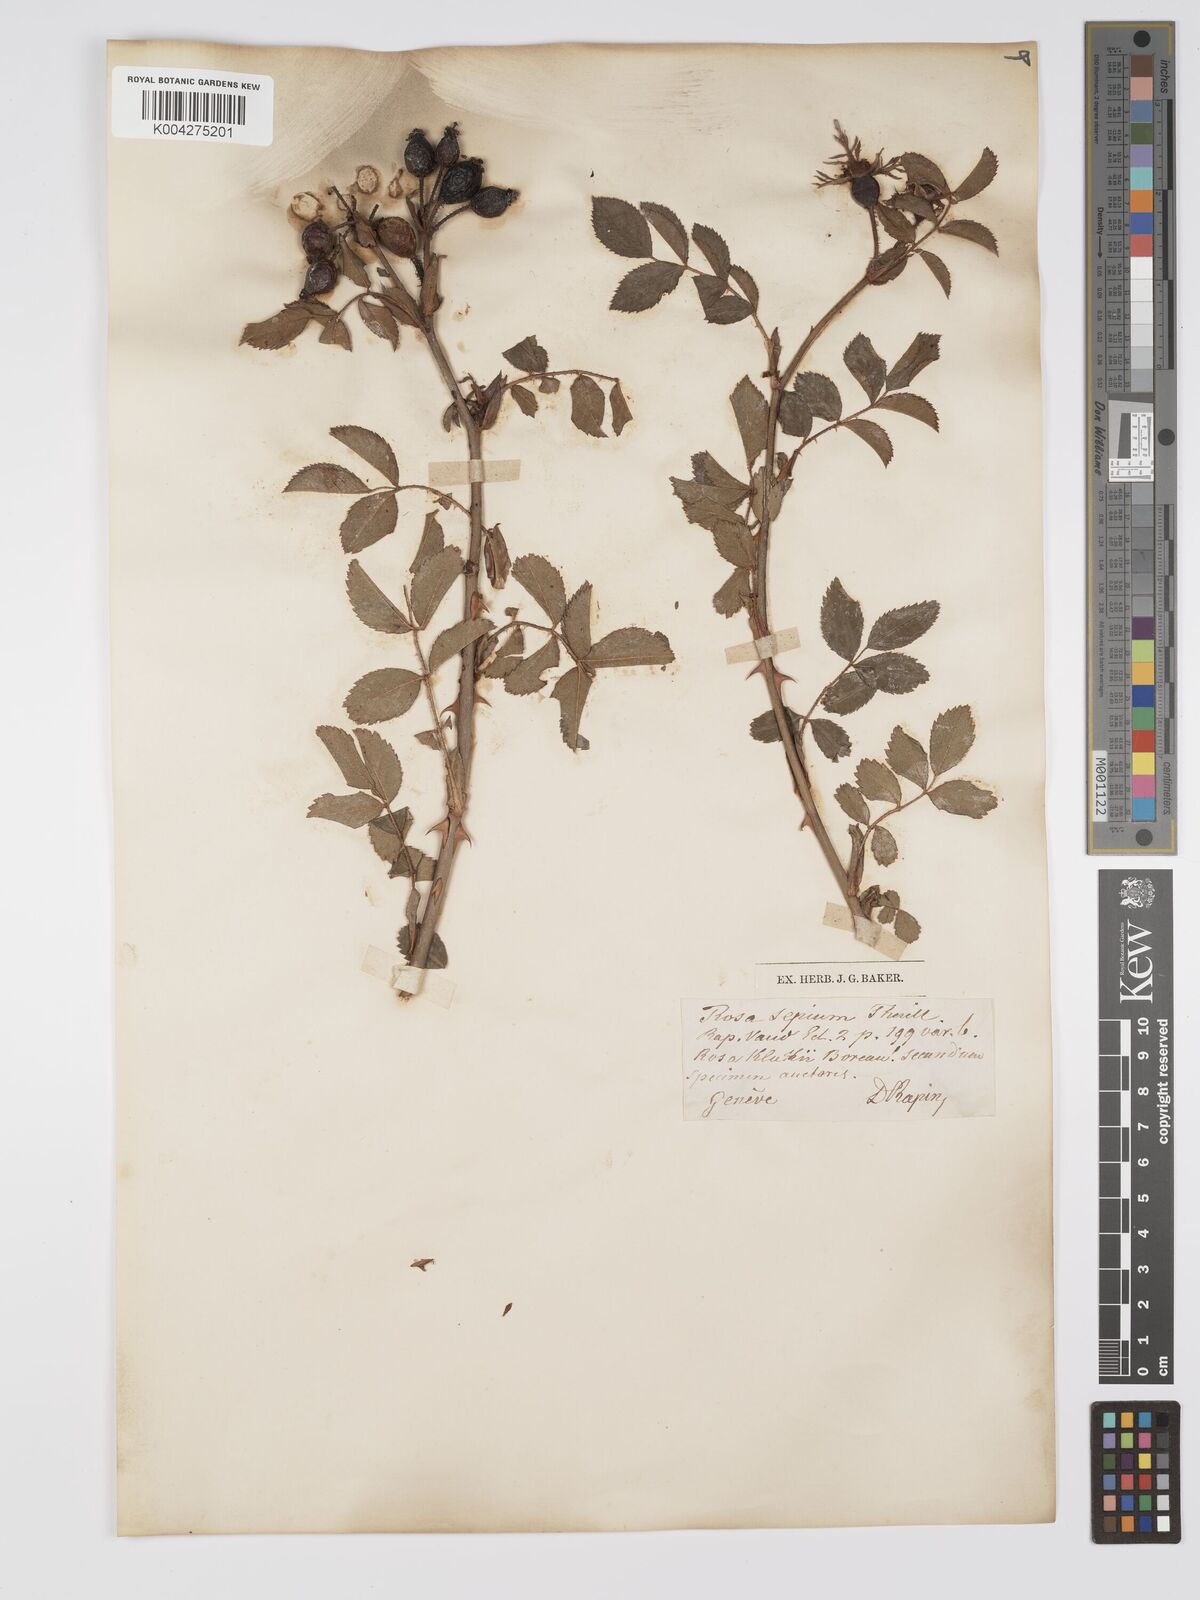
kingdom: Plantae
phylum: Tracheophyta
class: Magnoliopsida
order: Rosales
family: Rosaceae
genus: Rosa
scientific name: Rosa
